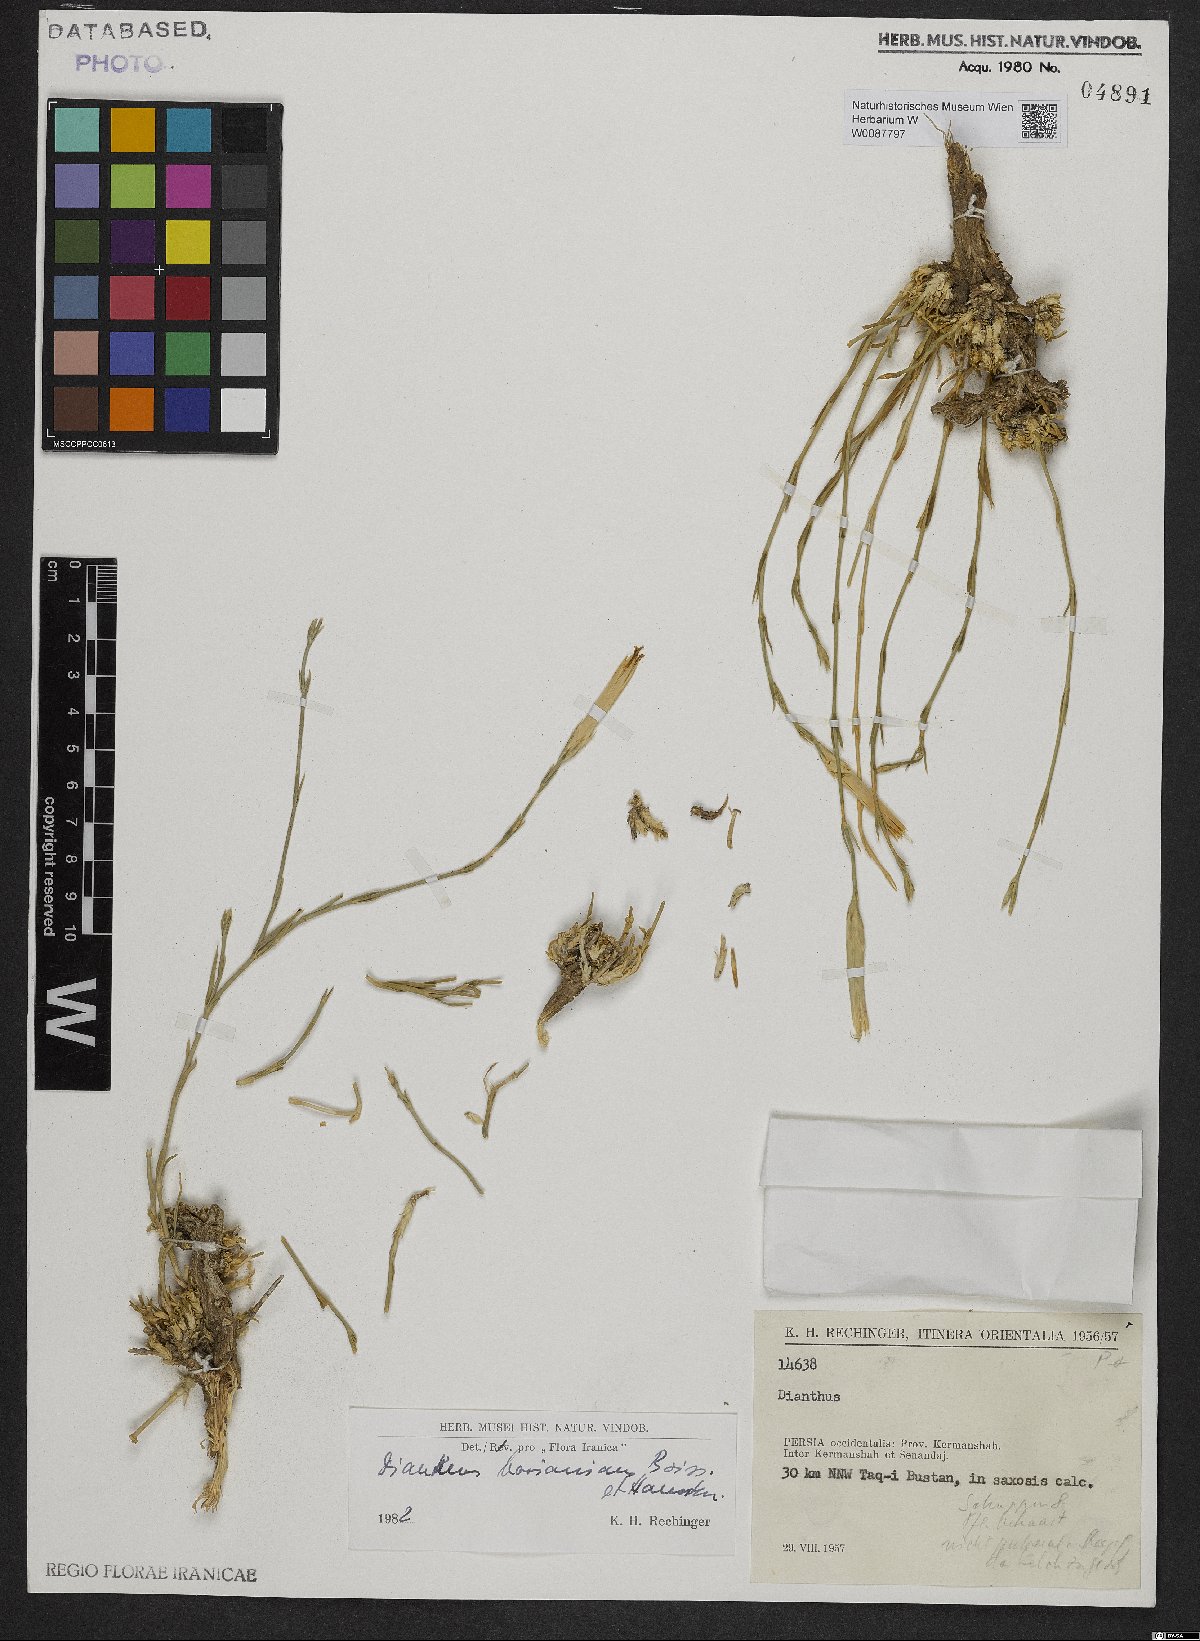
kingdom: Plantae
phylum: Tracheophyta
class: Magnoliopsida
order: Caryophyllales
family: Caryophyllaceae
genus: Dianthus
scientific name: Dianthus basianicus
